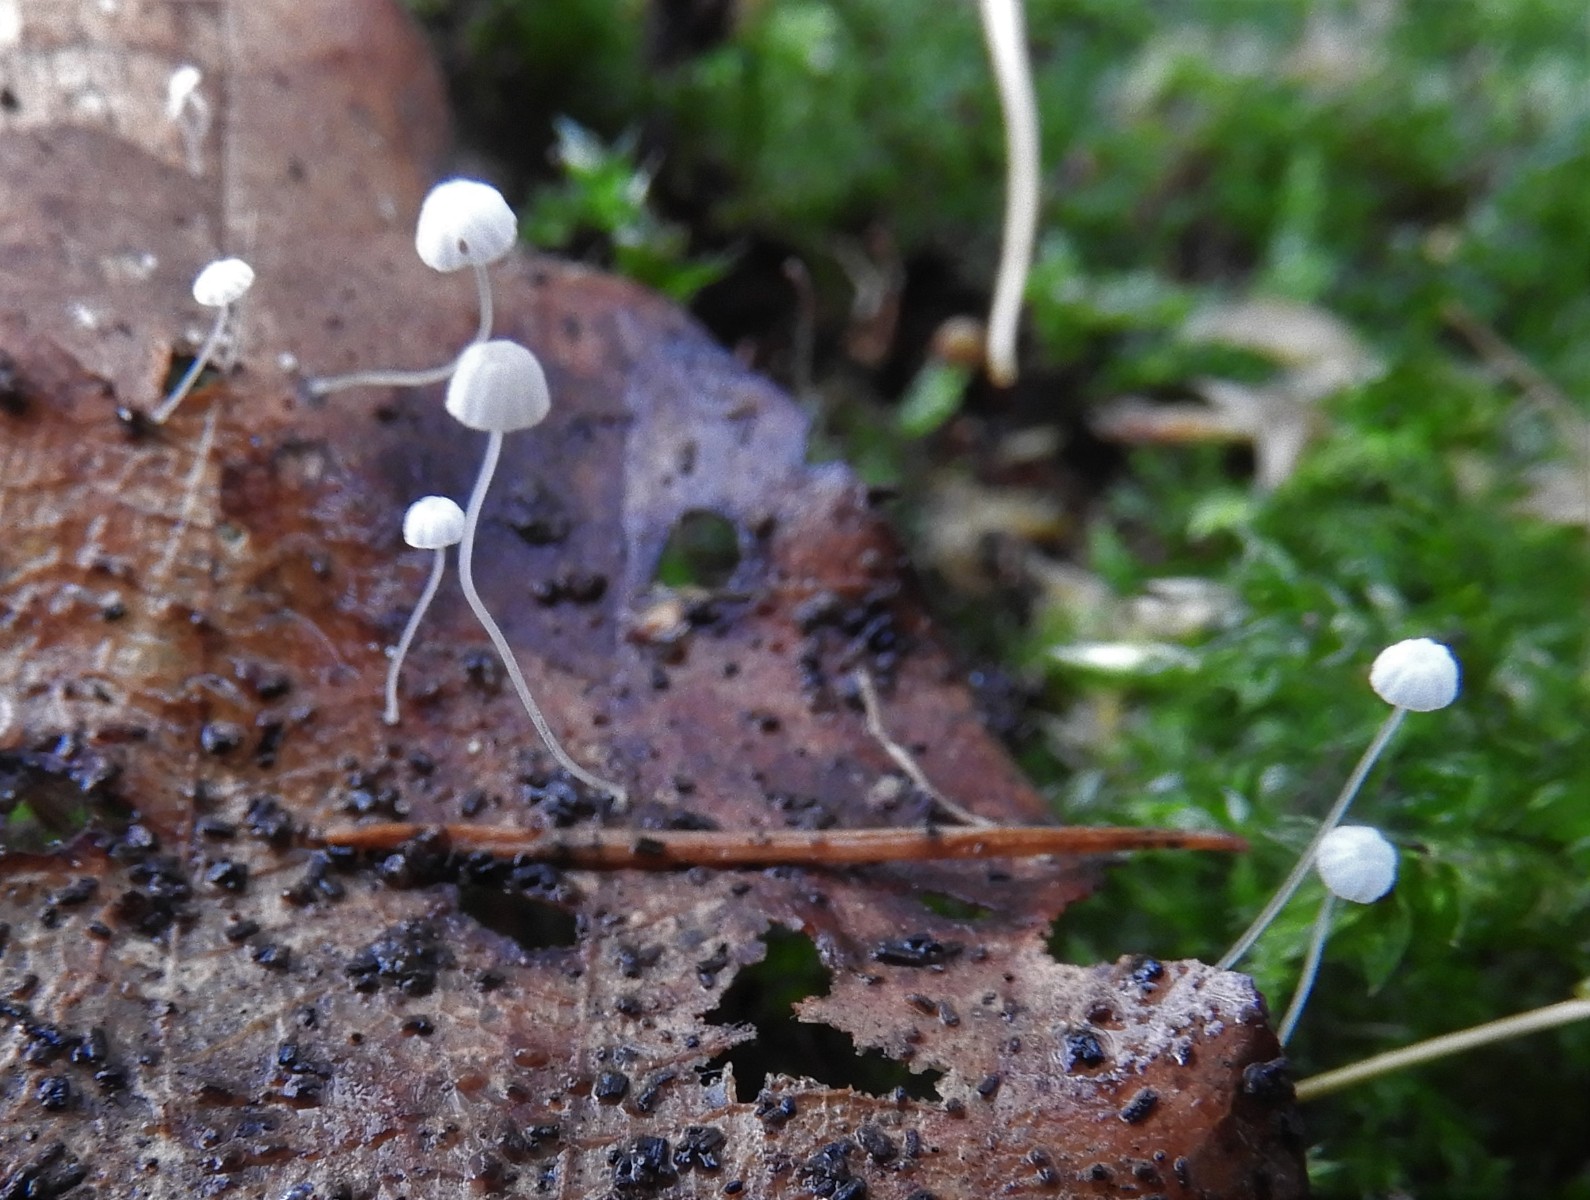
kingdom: Fungi
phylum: Basidiomycota
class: Agaricomycetes
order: Agaricales
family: Physalacriaceae
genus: Rhizomarasmius
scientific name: Rhizomarasmius setosus
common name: bøgeblads-bruskhat
